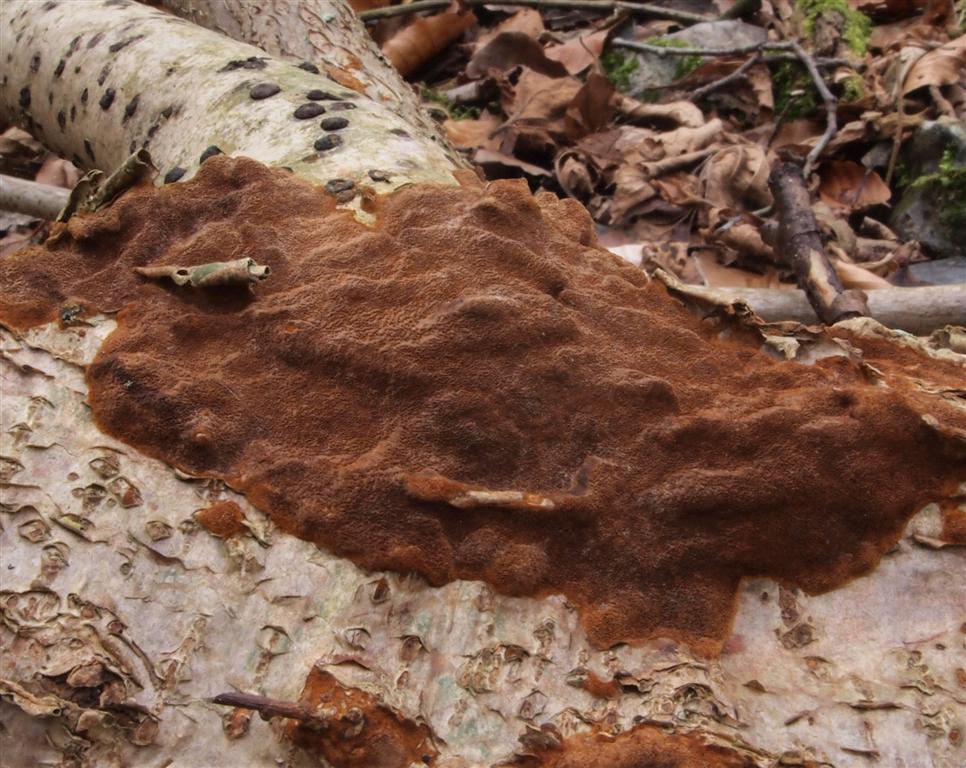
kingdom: Fungi
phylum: Basidiomycota
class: Agaricomycetes
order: Hymenochaetales
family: Hymenochaetaceae
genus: Fuscoporia
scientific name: Fuscoporia ferruginosa
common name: rustbrun ildporesvamp
